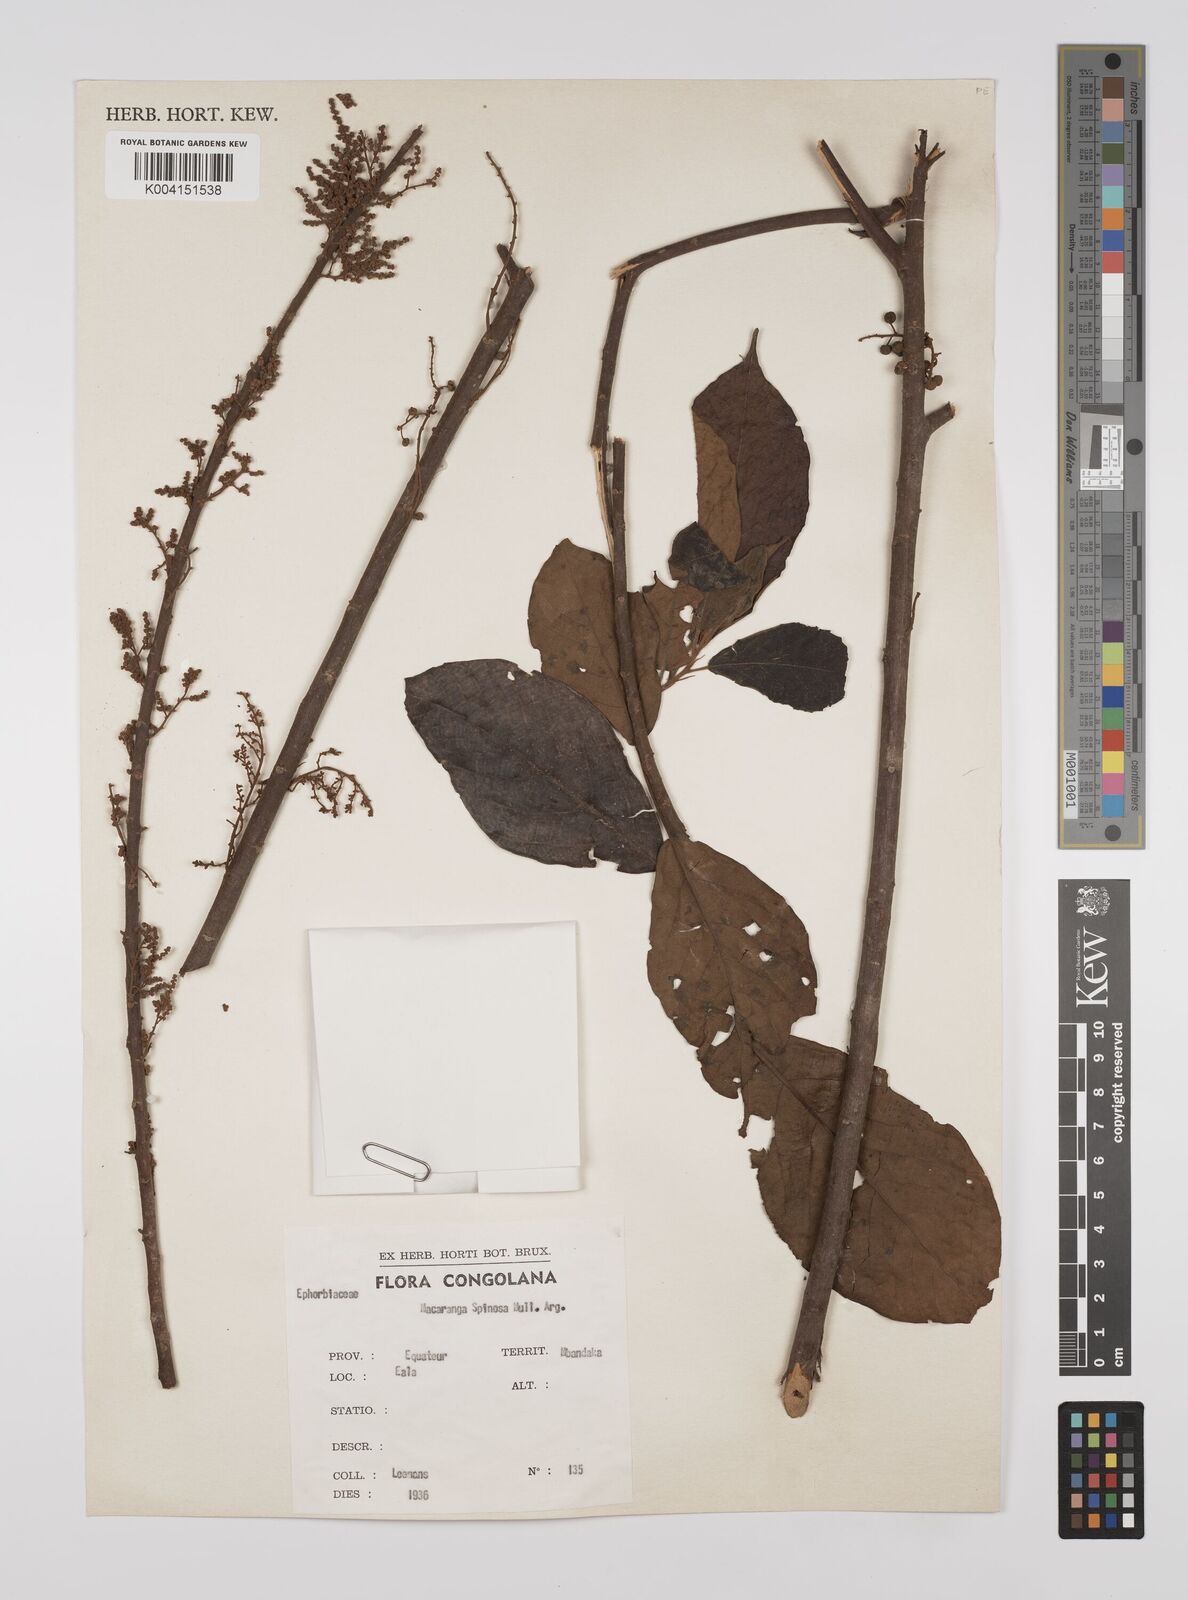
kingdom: Plantae
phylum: Tracheophyta
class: Magnoliopsida
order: Malpighiales
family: Euphorbiaceae
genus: Macaranga
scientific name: Macaranga spinosa
